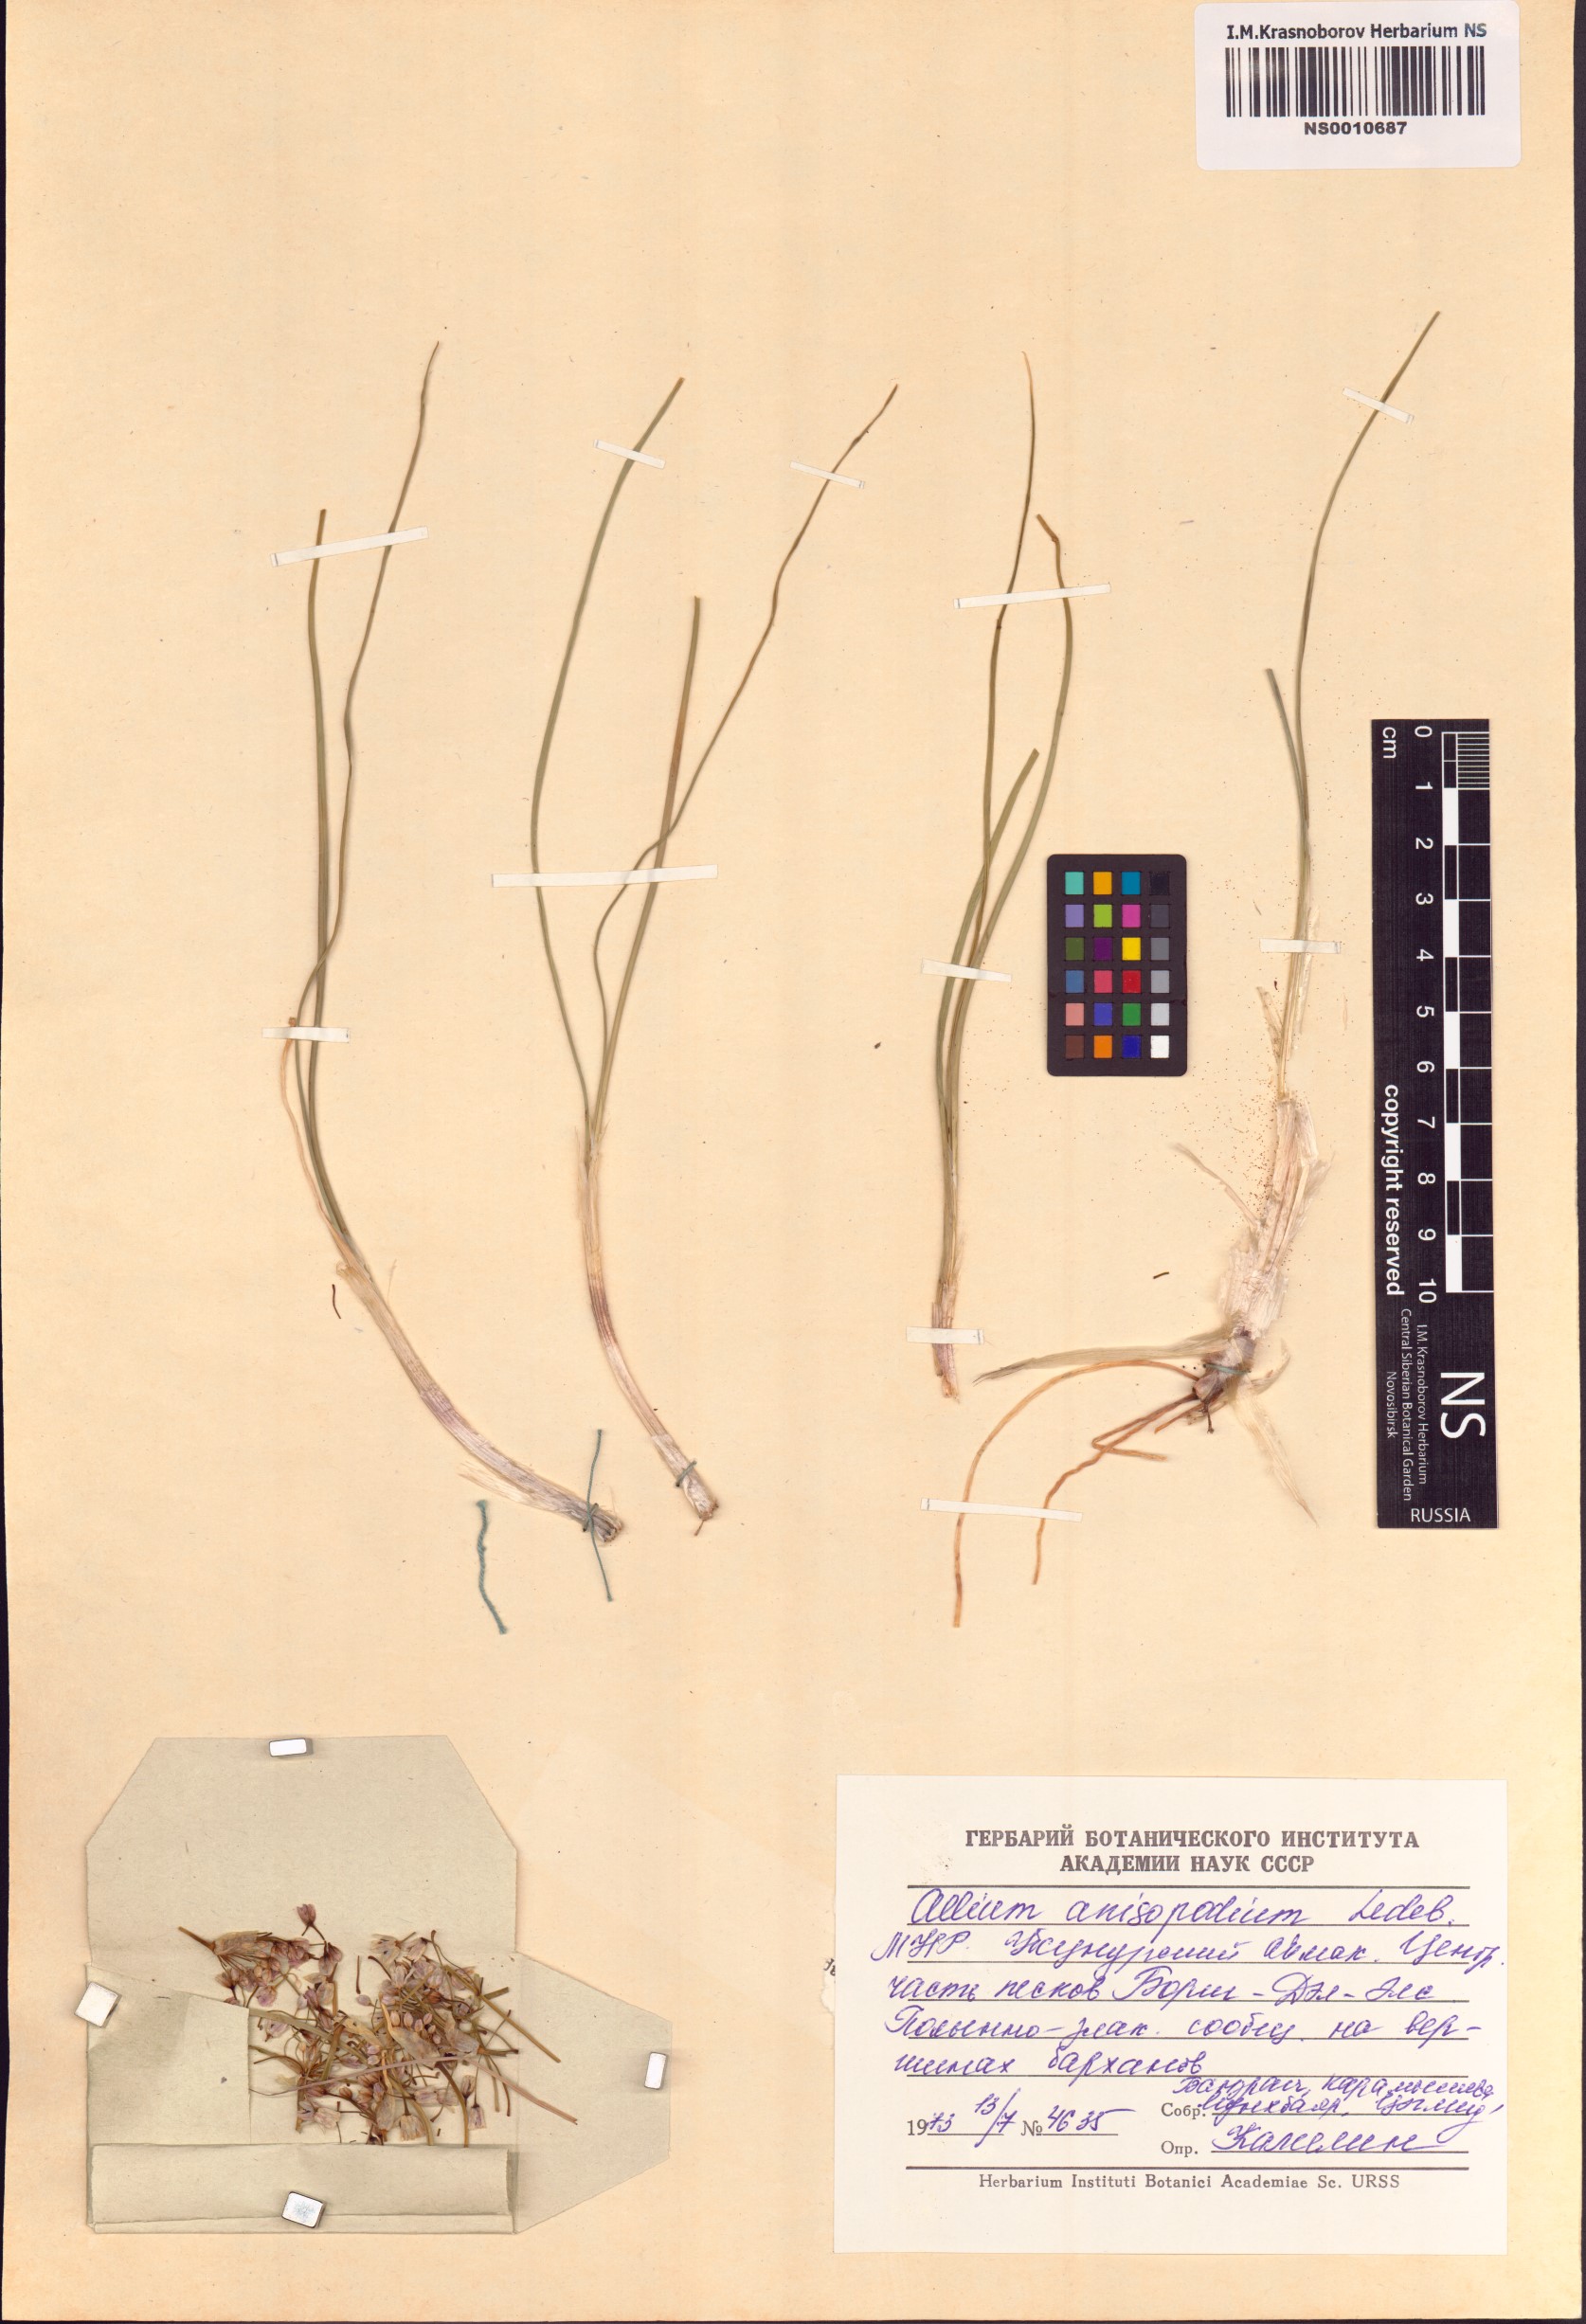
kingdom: Plantae
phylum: Tracheophyta
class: Liliopsida
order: Asparagales
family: Amaryllidaceae
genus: Allium
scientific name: Allium anisopodium
